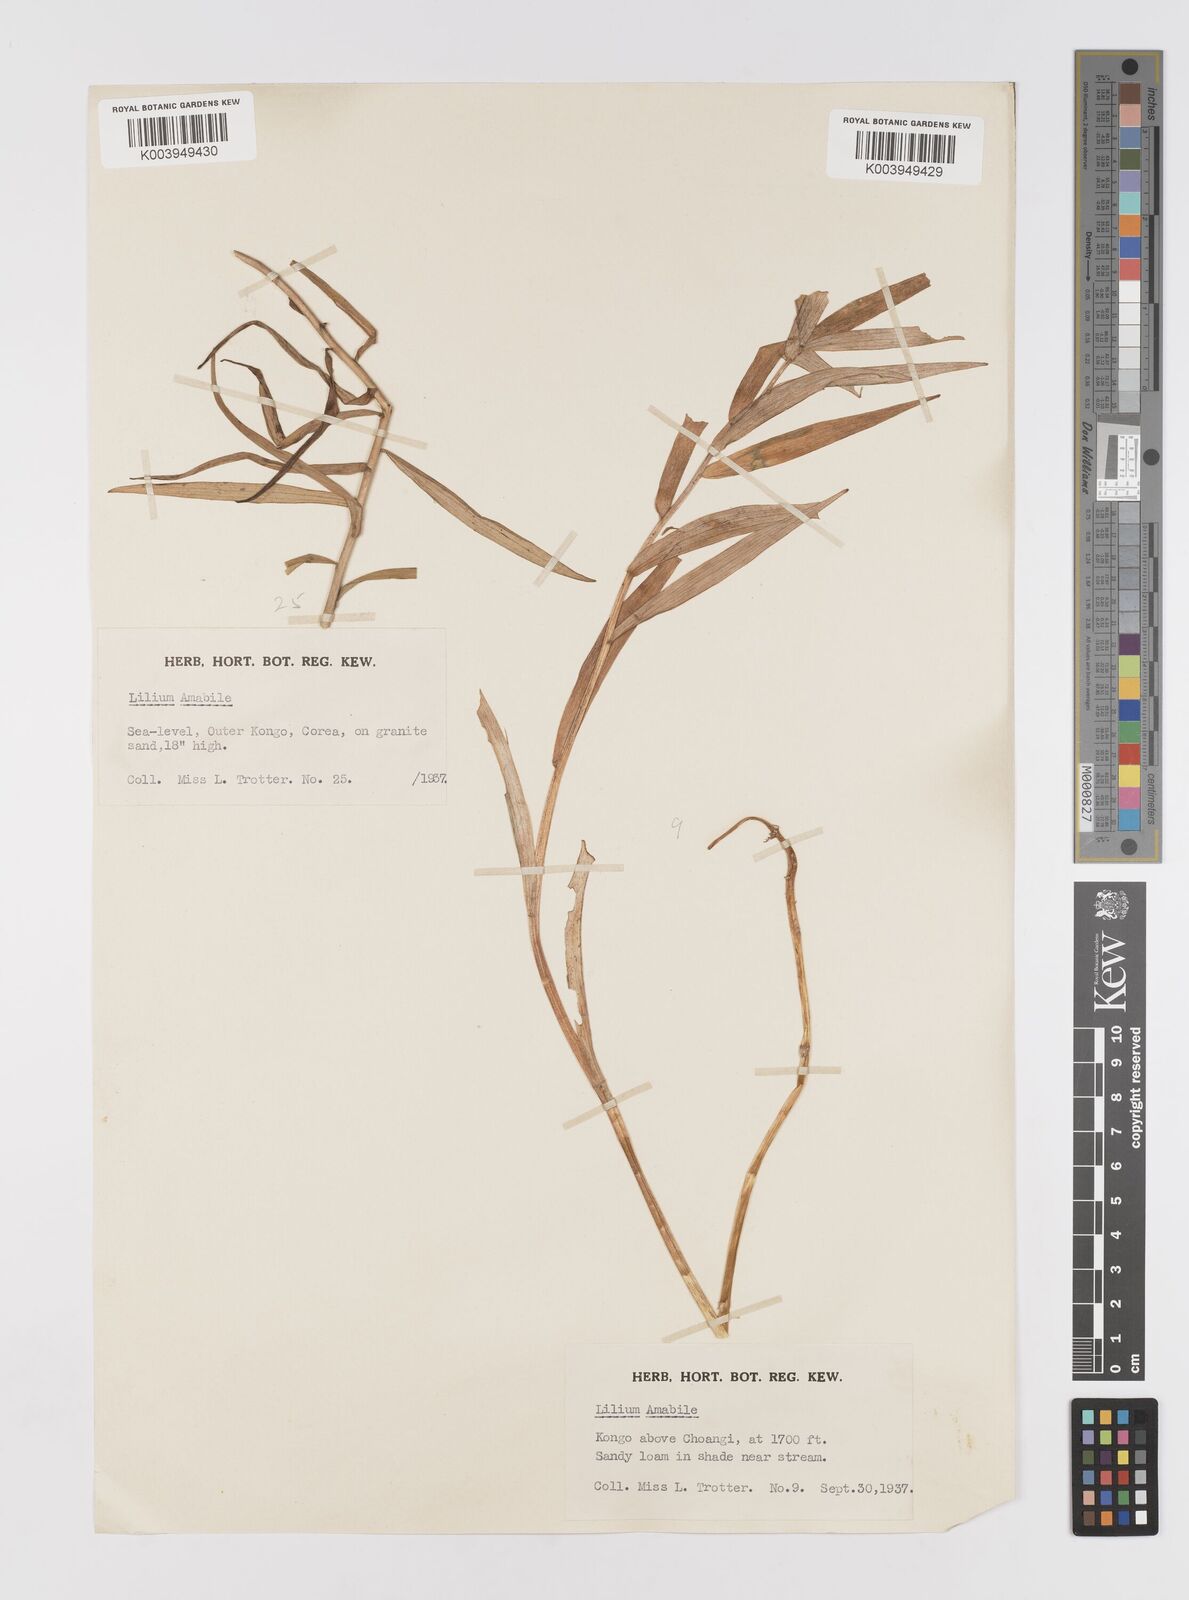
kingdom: Plantae
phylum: Tracheophyta
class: Liliopsida
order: Liliales
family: Liliaceae
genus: Lilium
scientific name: Lilium amabile
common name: Korean lily
